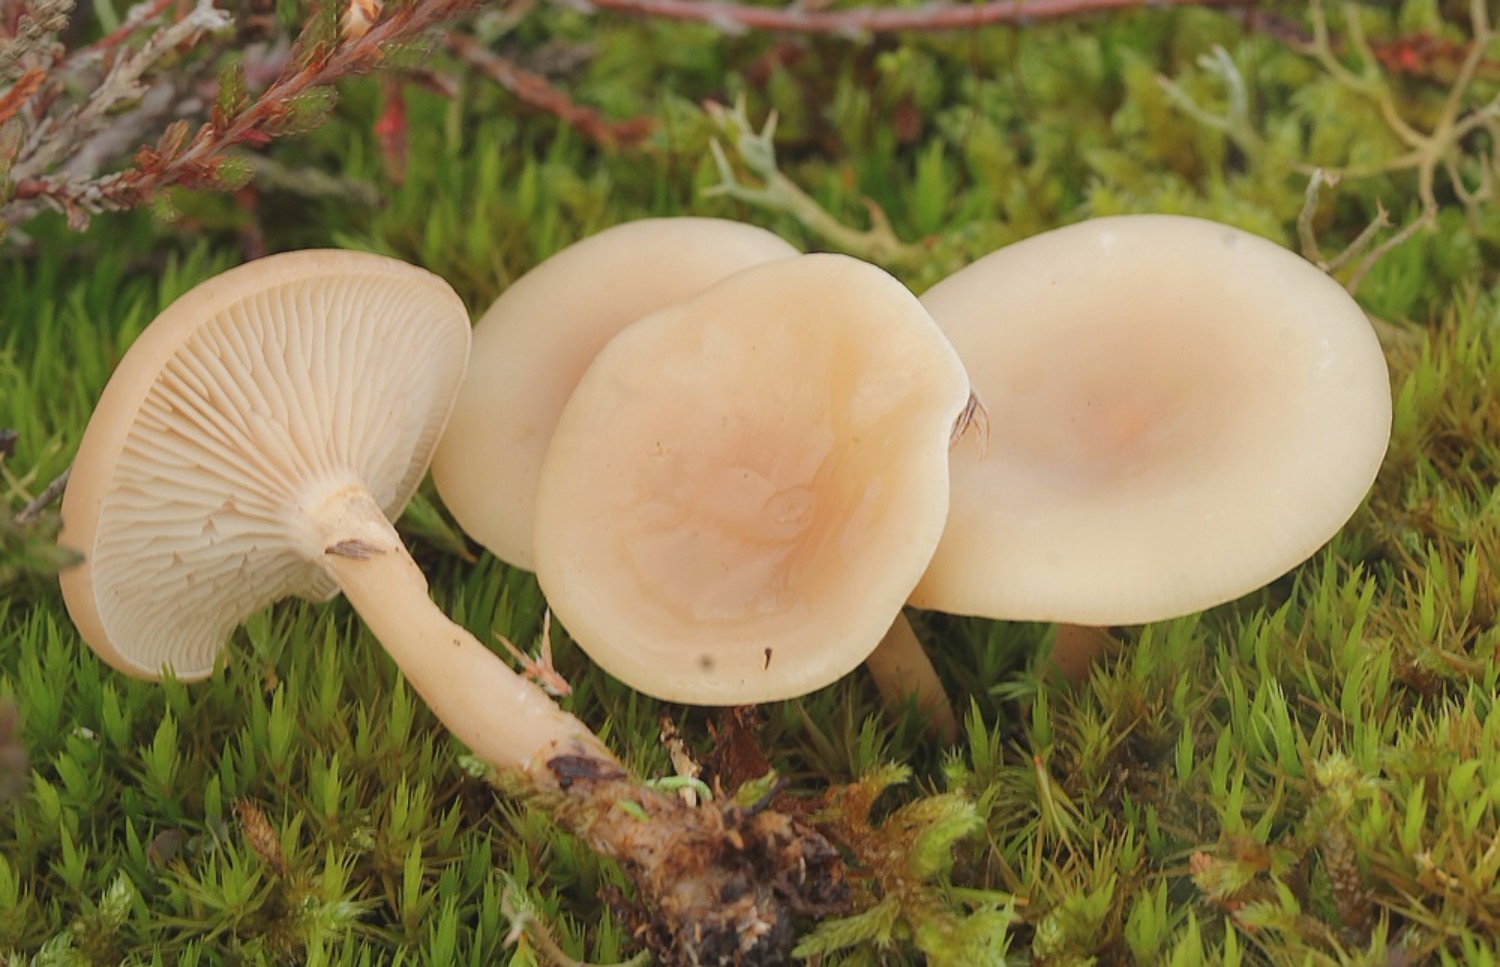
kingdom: Fungi
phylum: Basidiomycota
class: Agaricomycetes
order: Agaricales
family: Tricholomataceae
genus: Clitocybe
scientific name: Clitocybe
